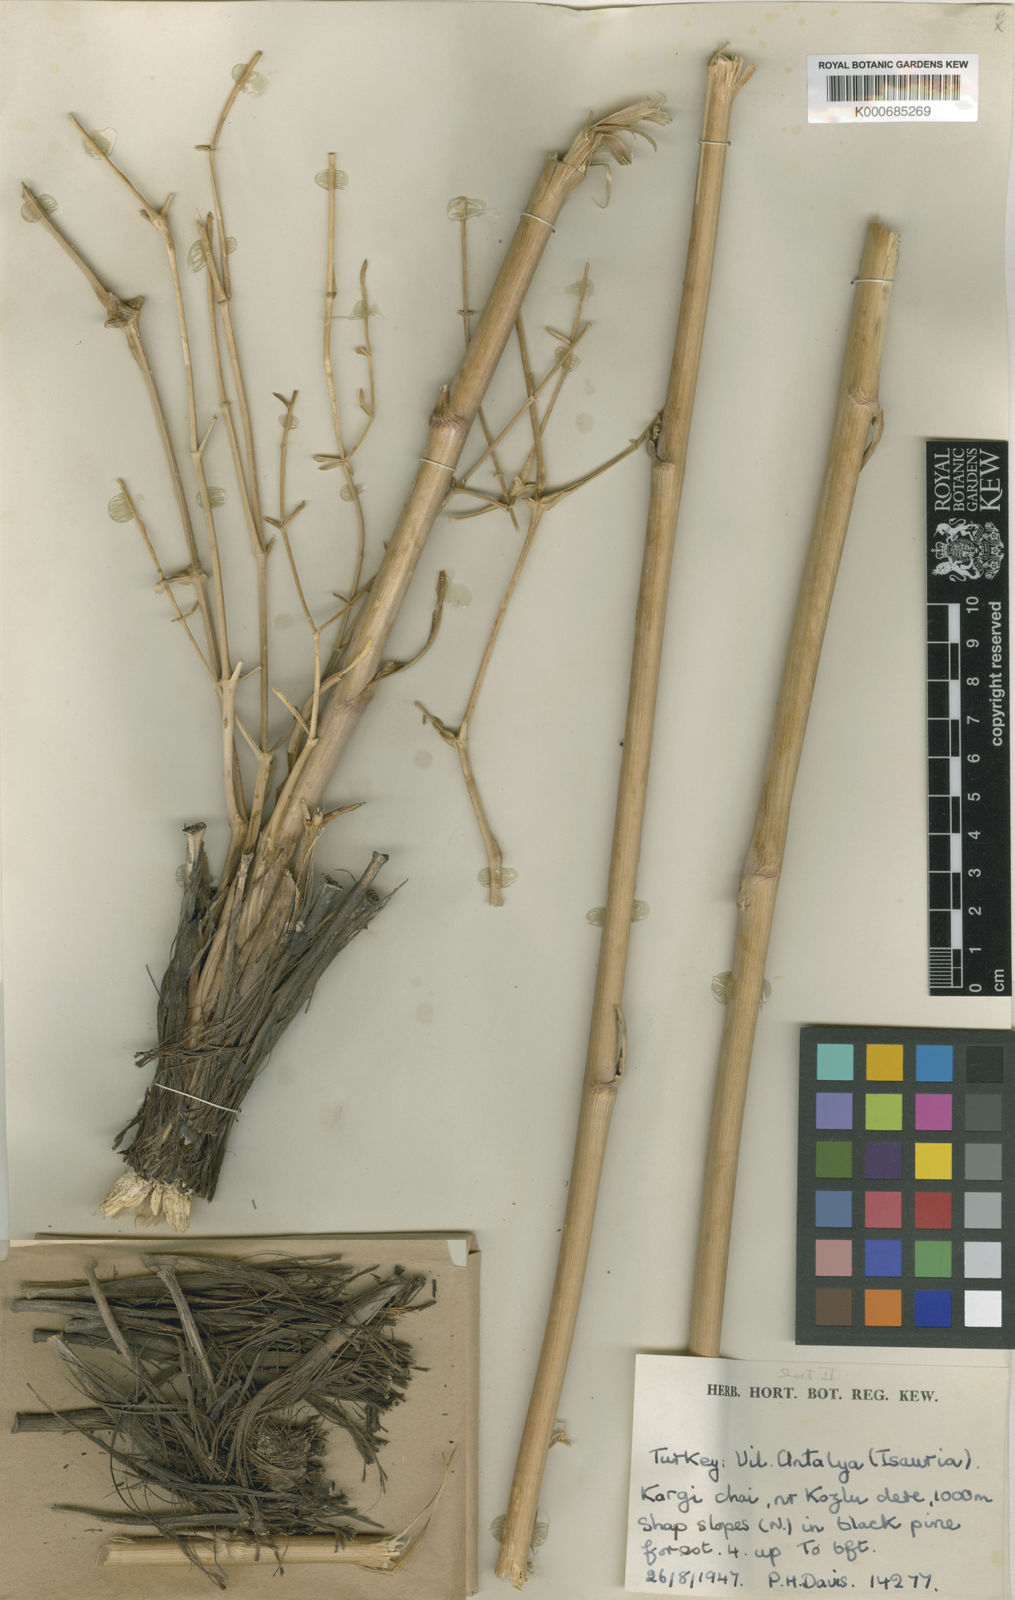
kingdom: Plantae
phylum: Tracheophyta
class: Magnoliopsida
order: Apiales
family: Apiaceae
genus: Ferulago
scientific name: Ferulago isaurica
